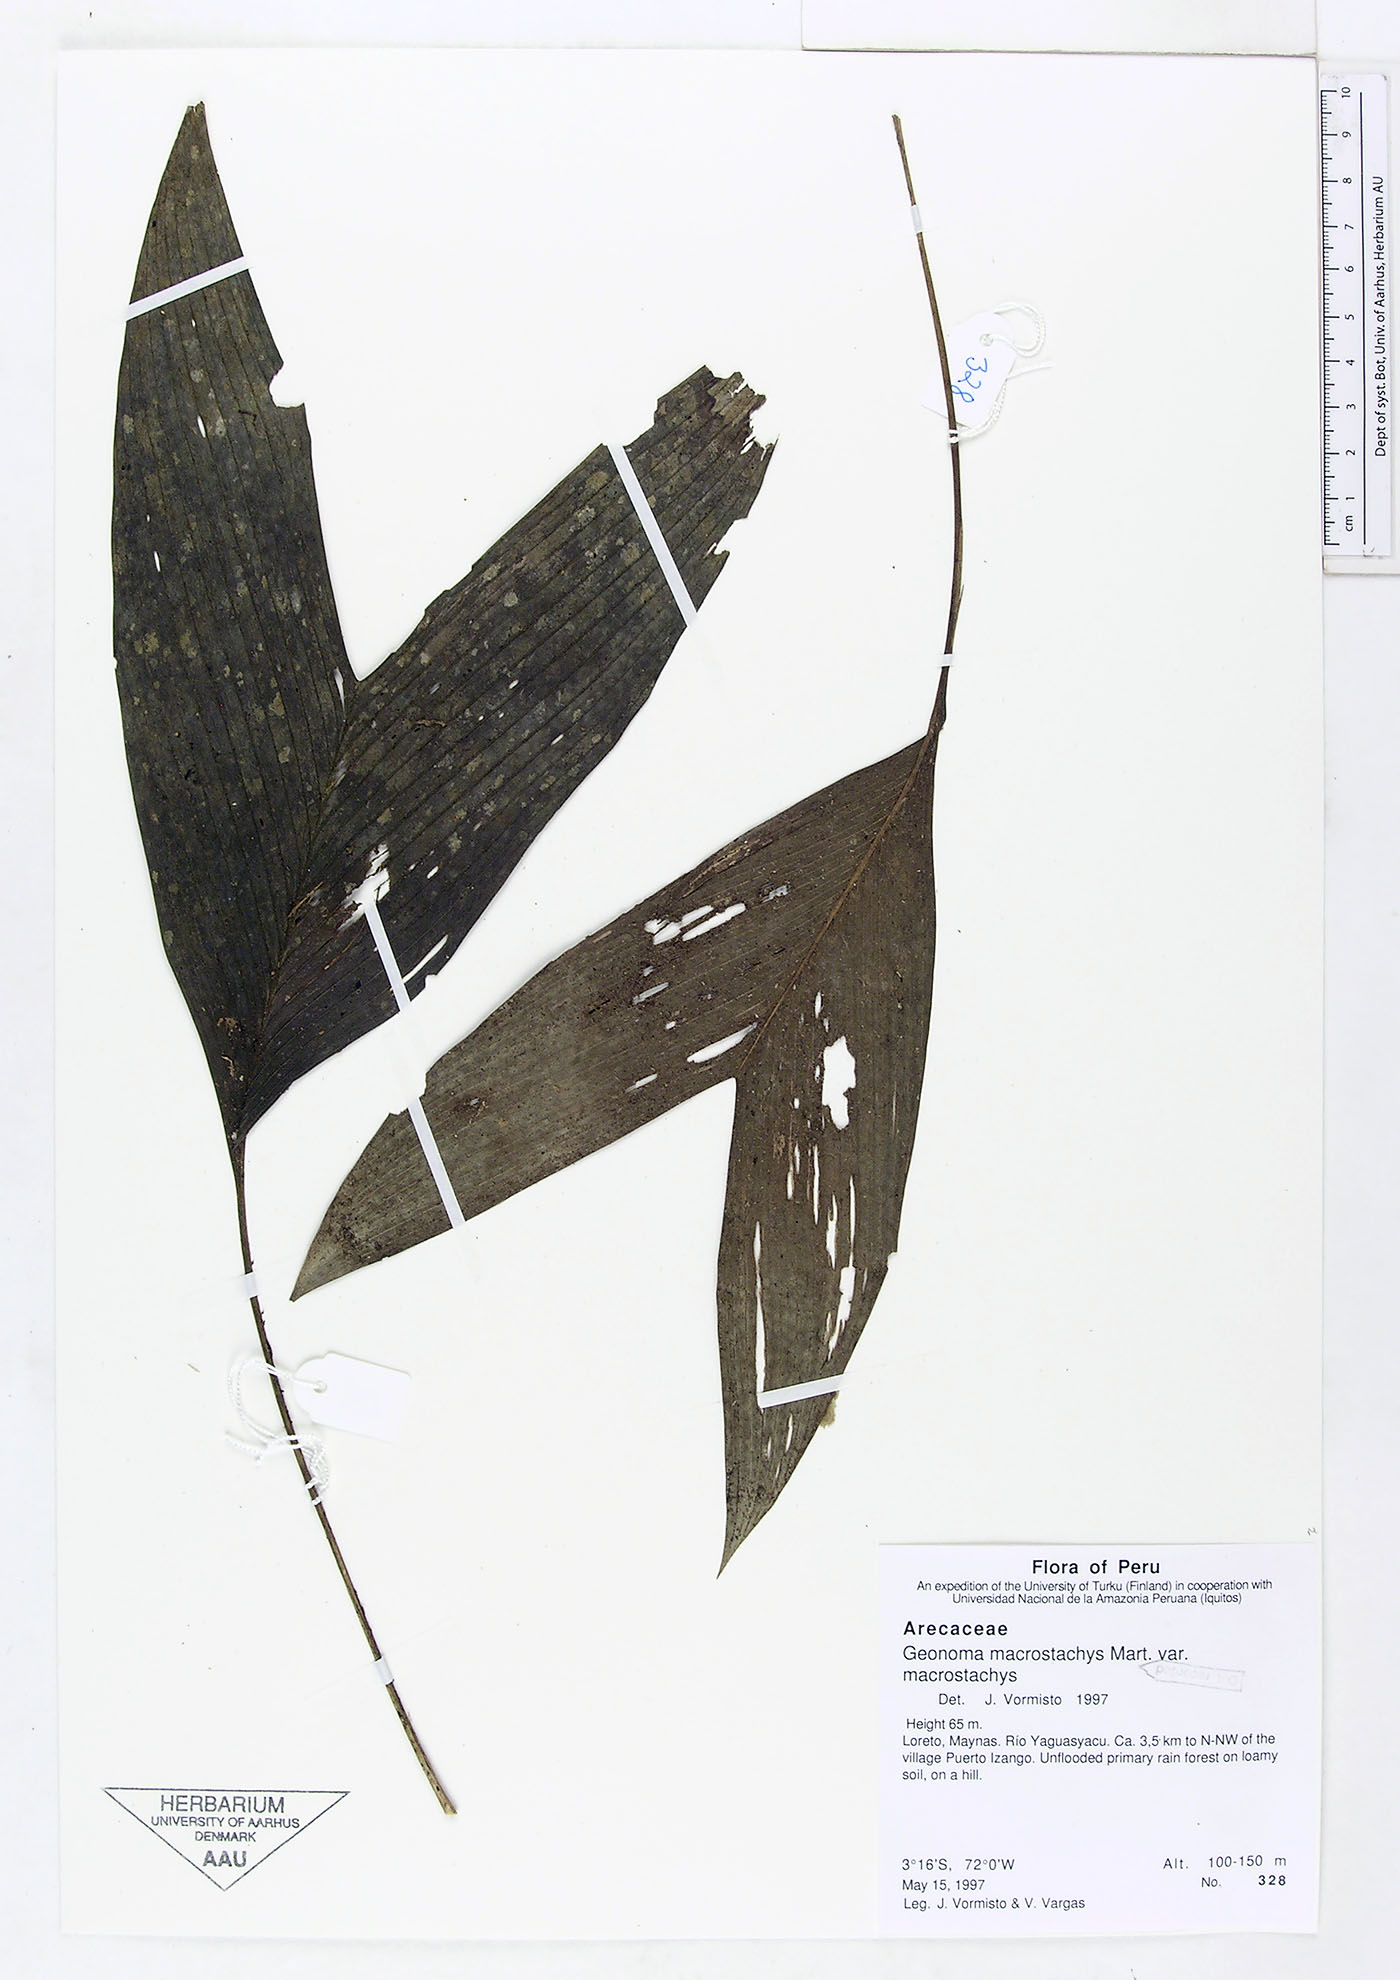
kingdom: Plantae
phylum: Tracheophyta
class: Liliopsida
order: Arecales
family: Arecaceae
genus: Geonoma
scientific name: Geonoma macrostachys
